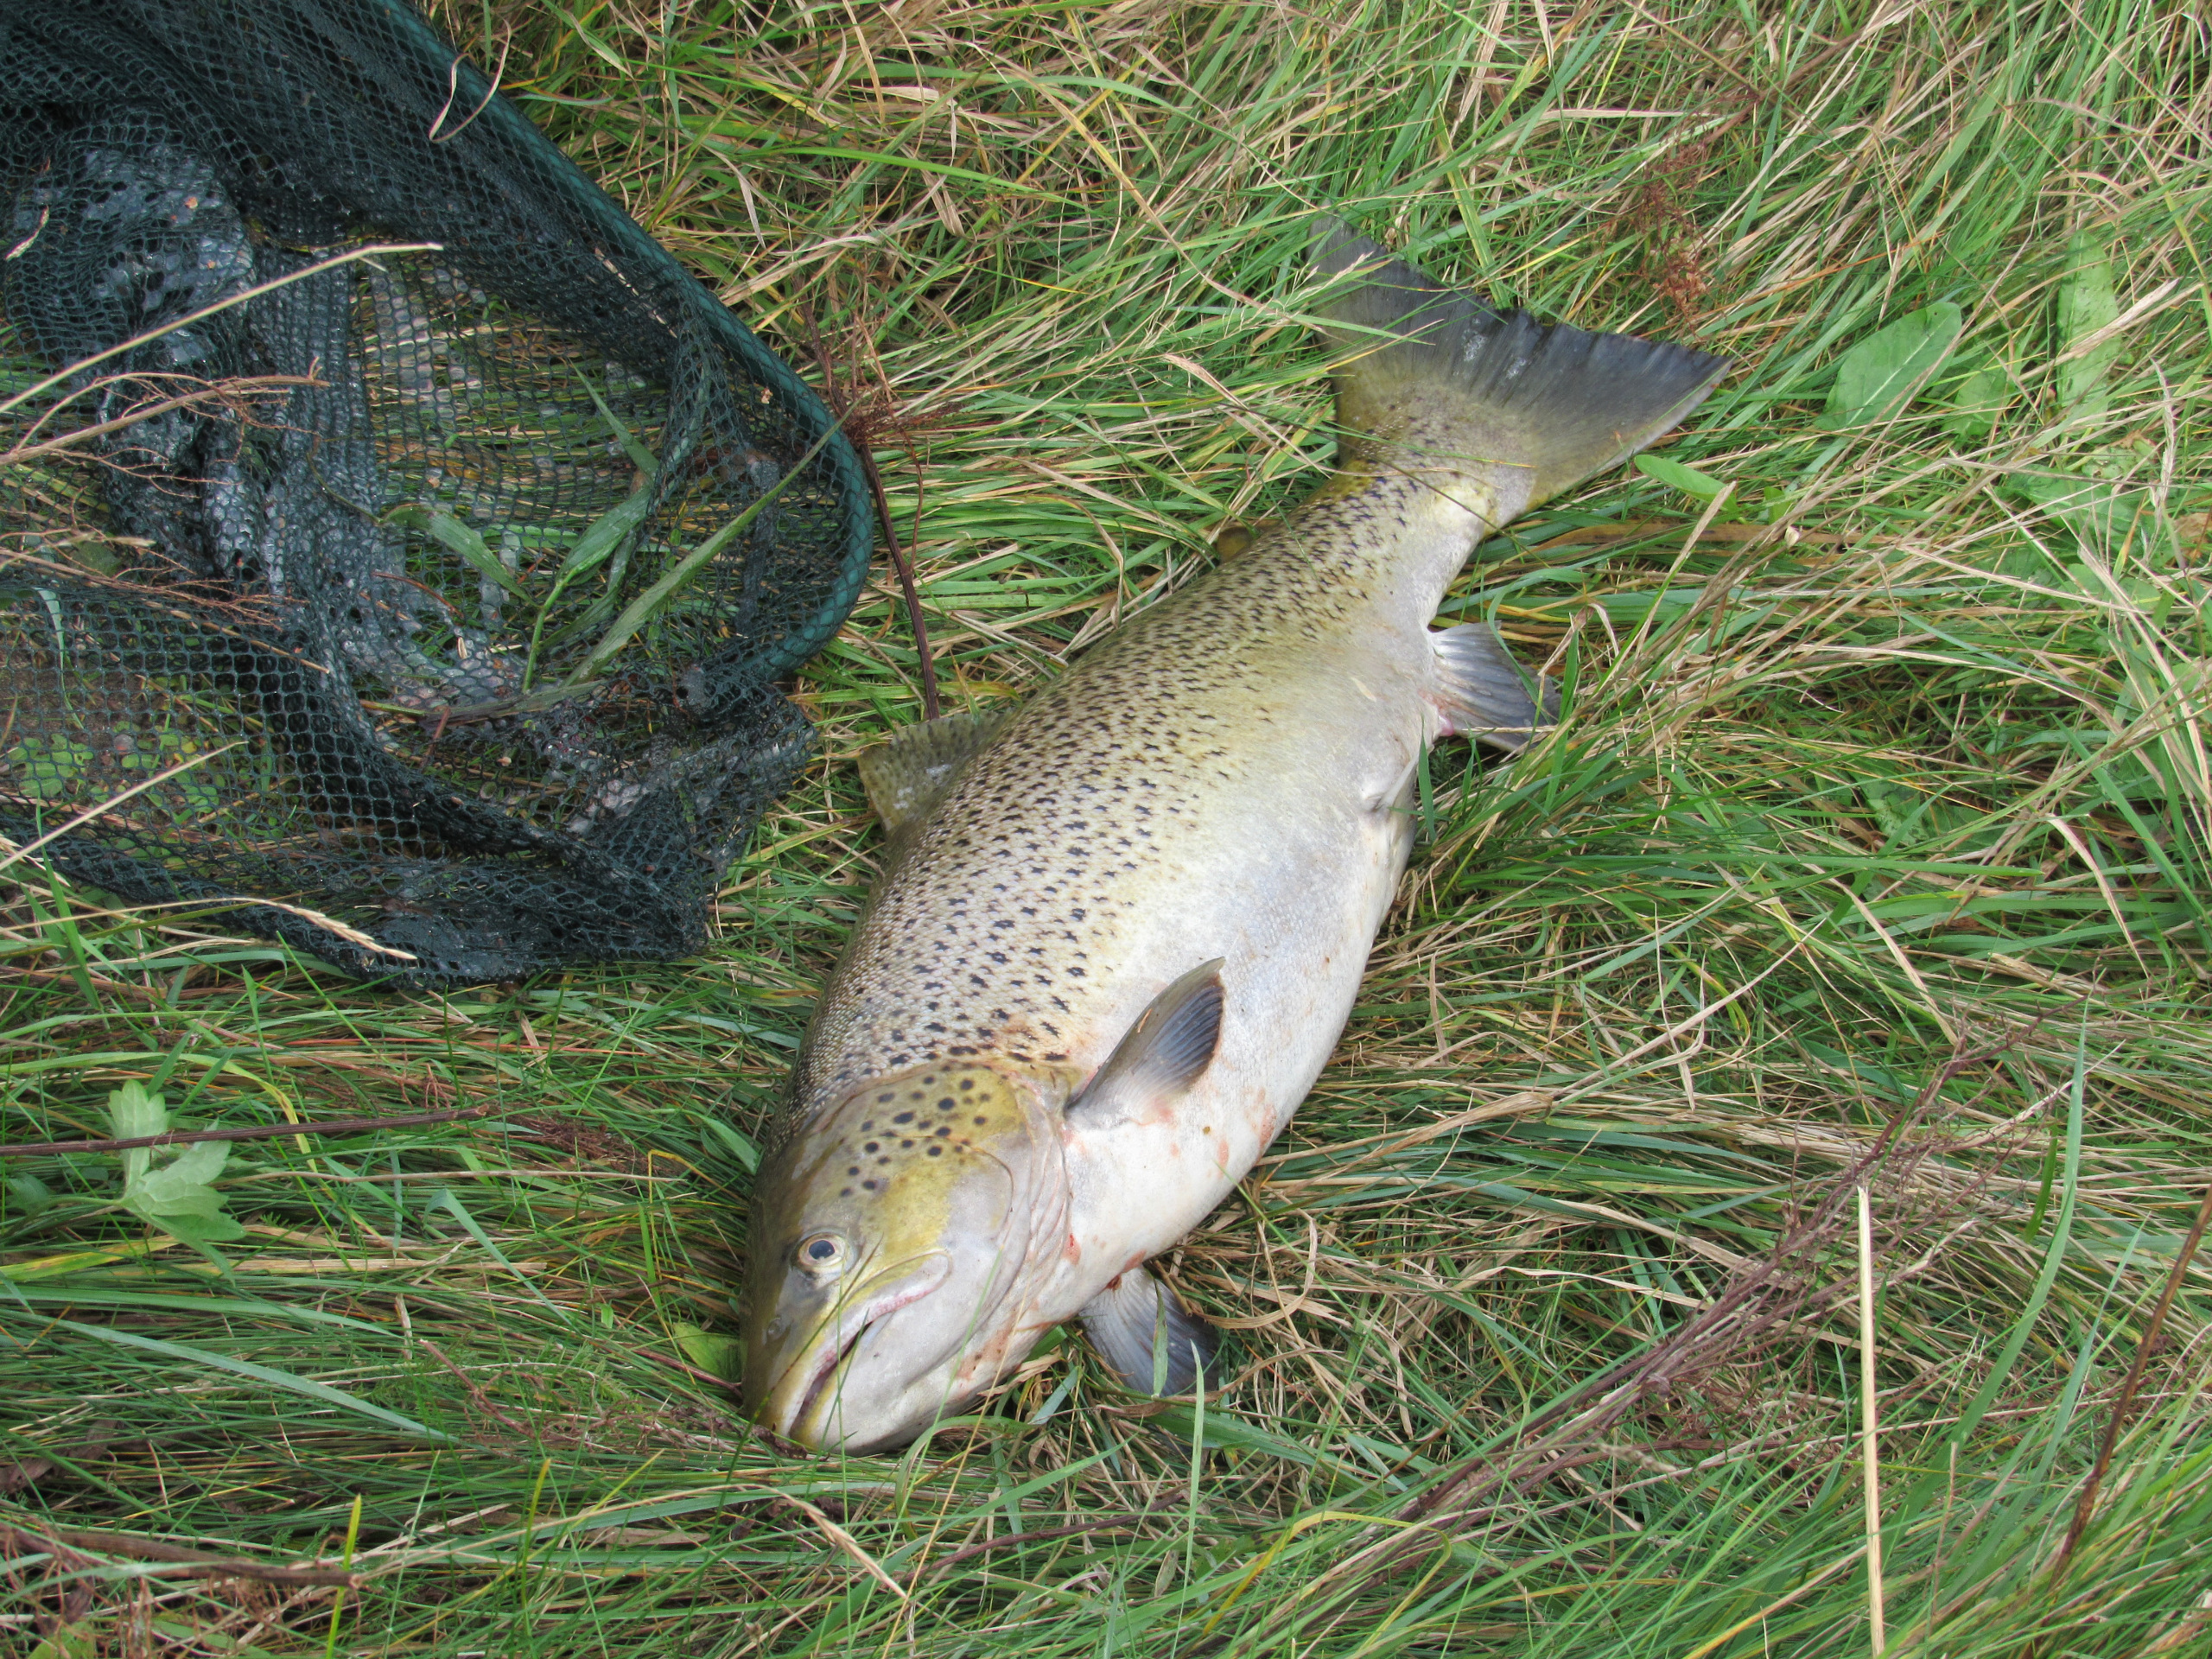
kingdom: Animalia
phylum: Chordata
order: Salmoniformes
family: Salmonidae
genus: Salmo
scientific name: Salmo trutta
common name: Ørred
